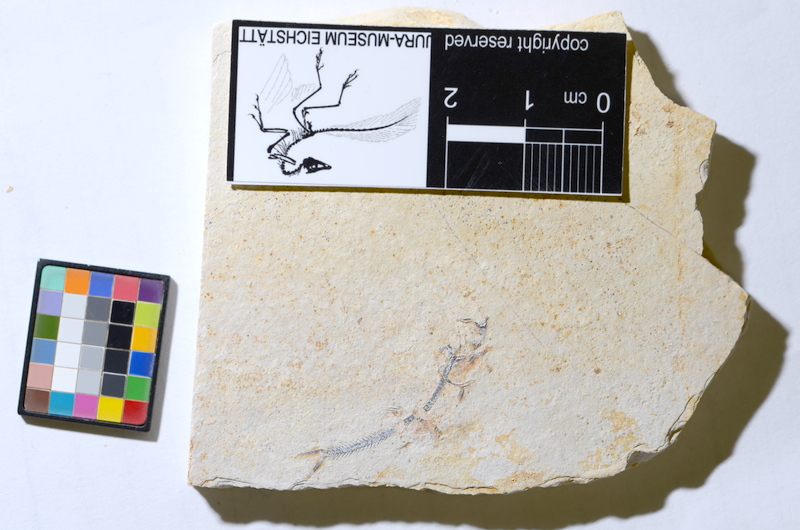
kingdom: Animalia
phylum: Chordata
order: Salmoniformes
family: Orthogonikleithridae
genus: Orthogonikleithrus
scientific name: Orthogonikleithrus hoelli
